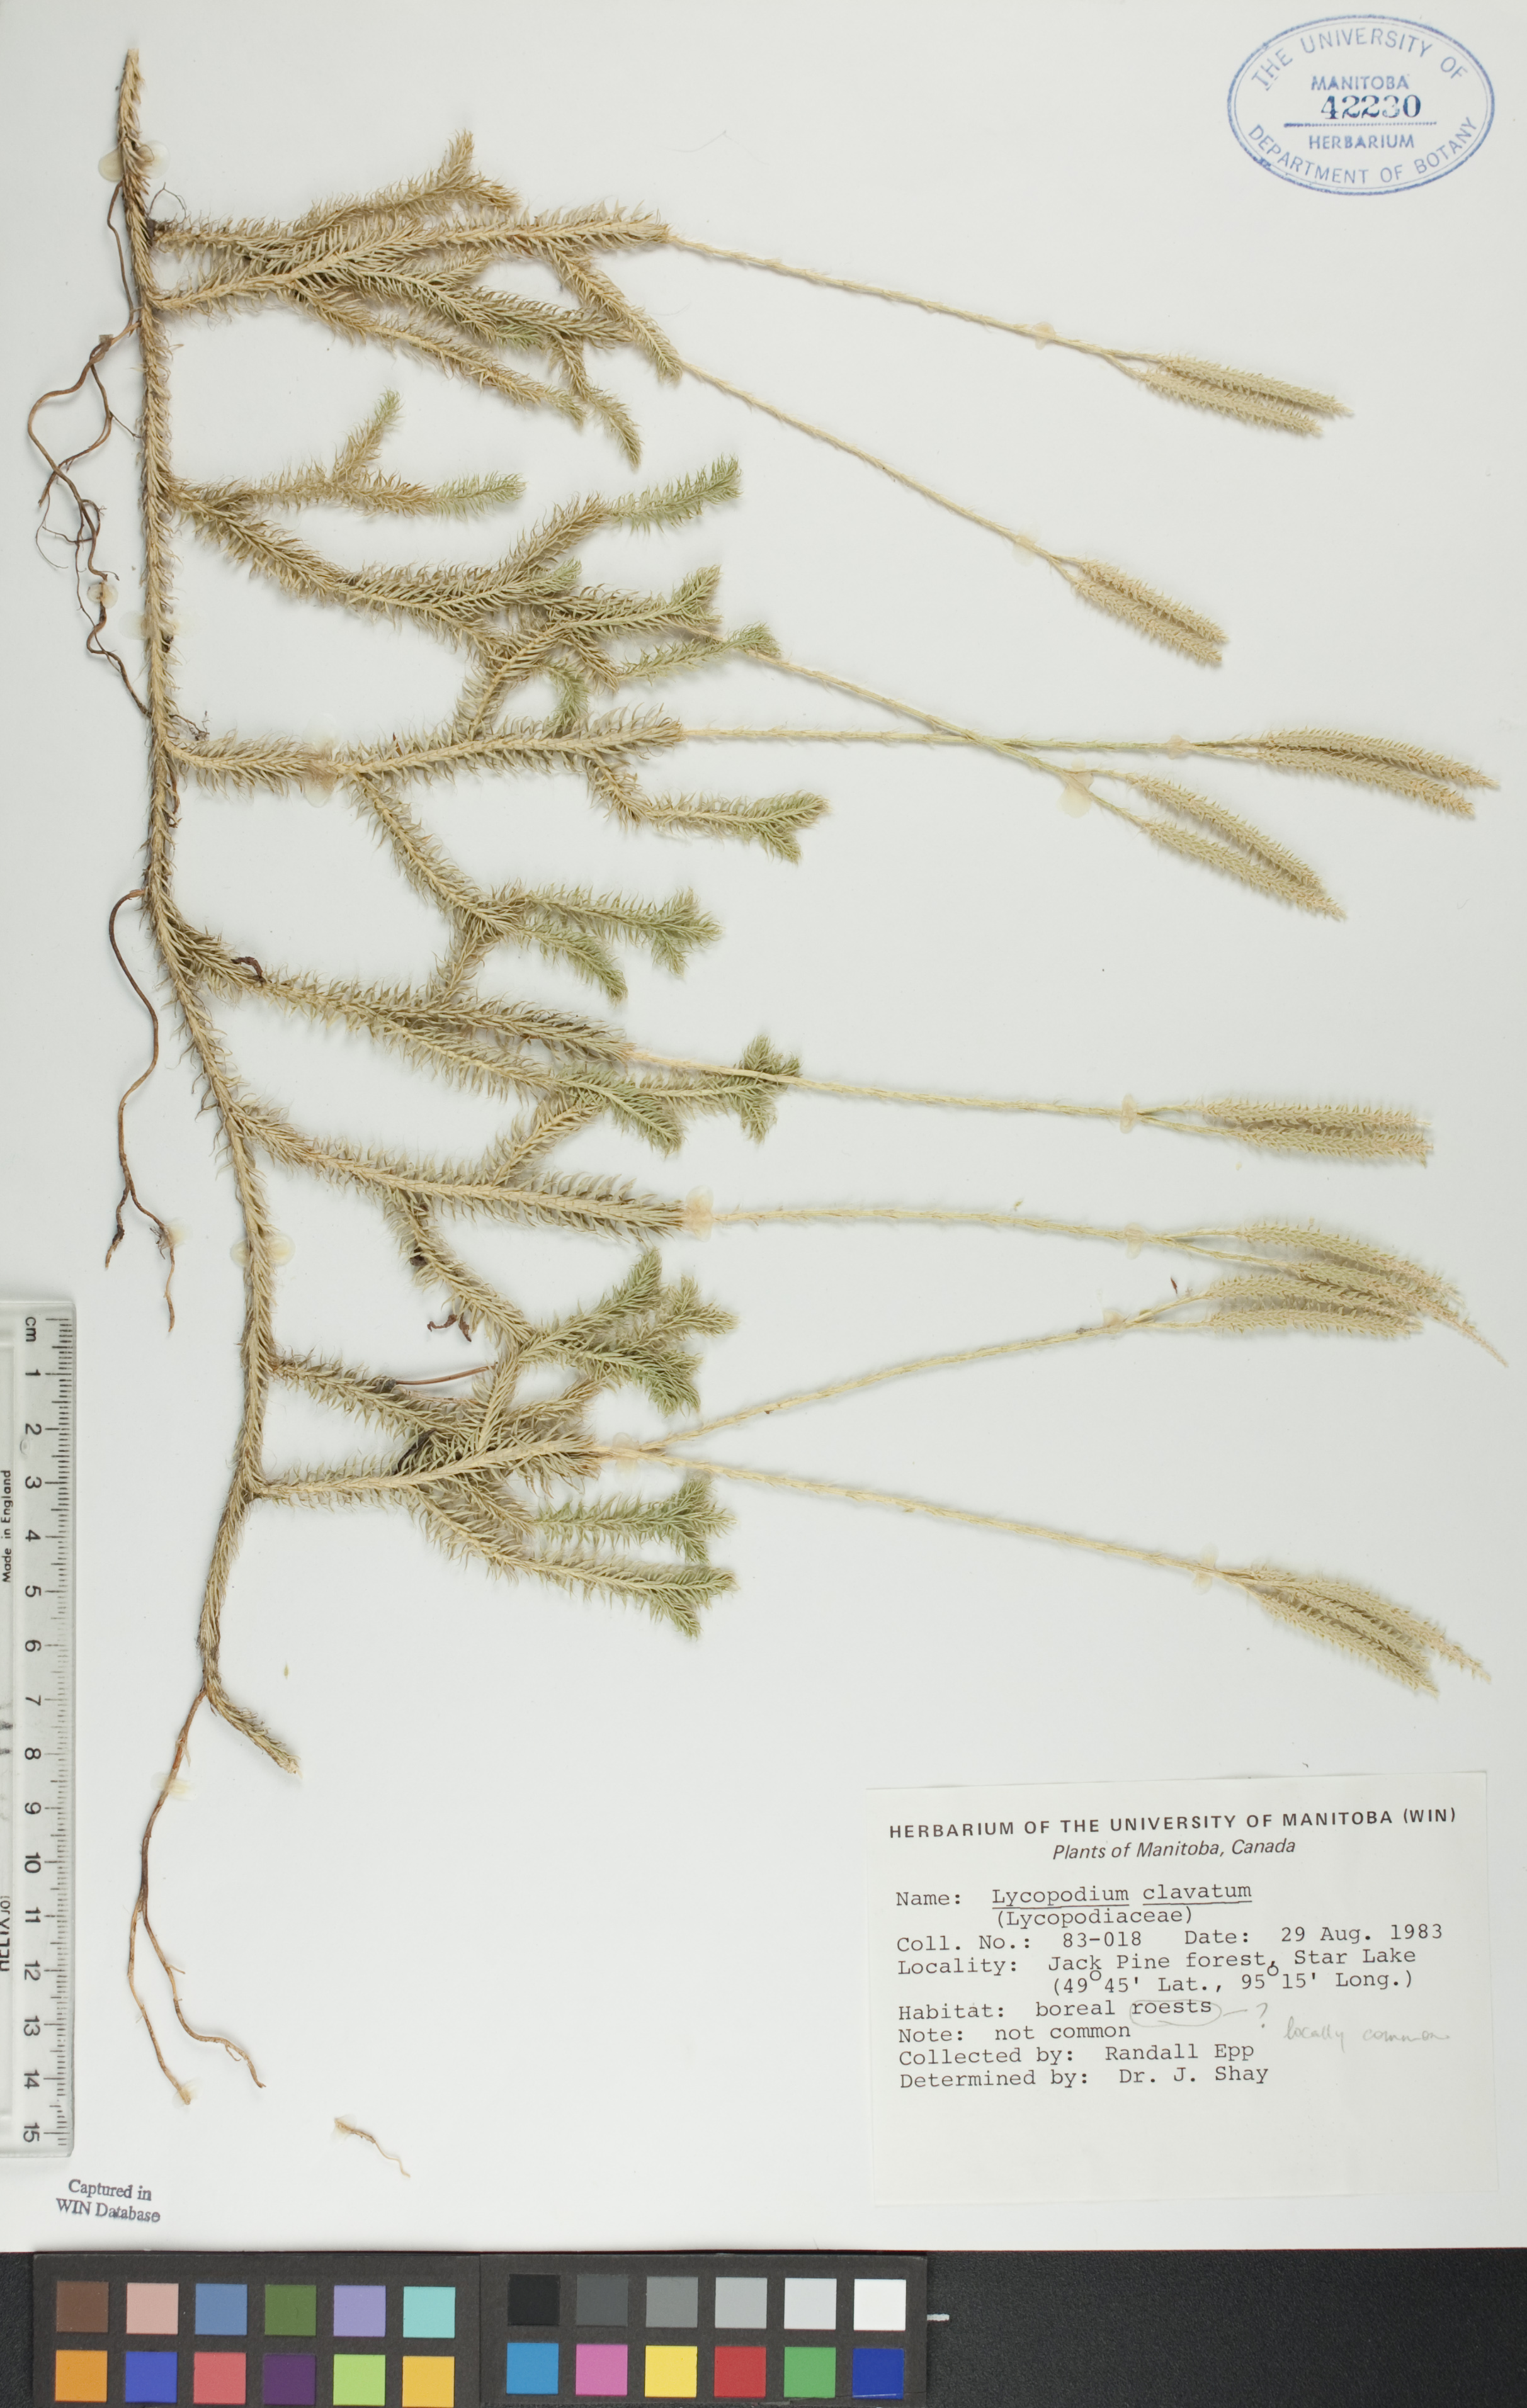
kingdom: Plantae
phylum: Tracheophyta
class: Lycopodiopsida
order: Lycopodiales
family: Lycopodiaceae
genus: Lycopodium
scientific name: Lycopodium clavatum
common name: Stag's-horn clubmoss
